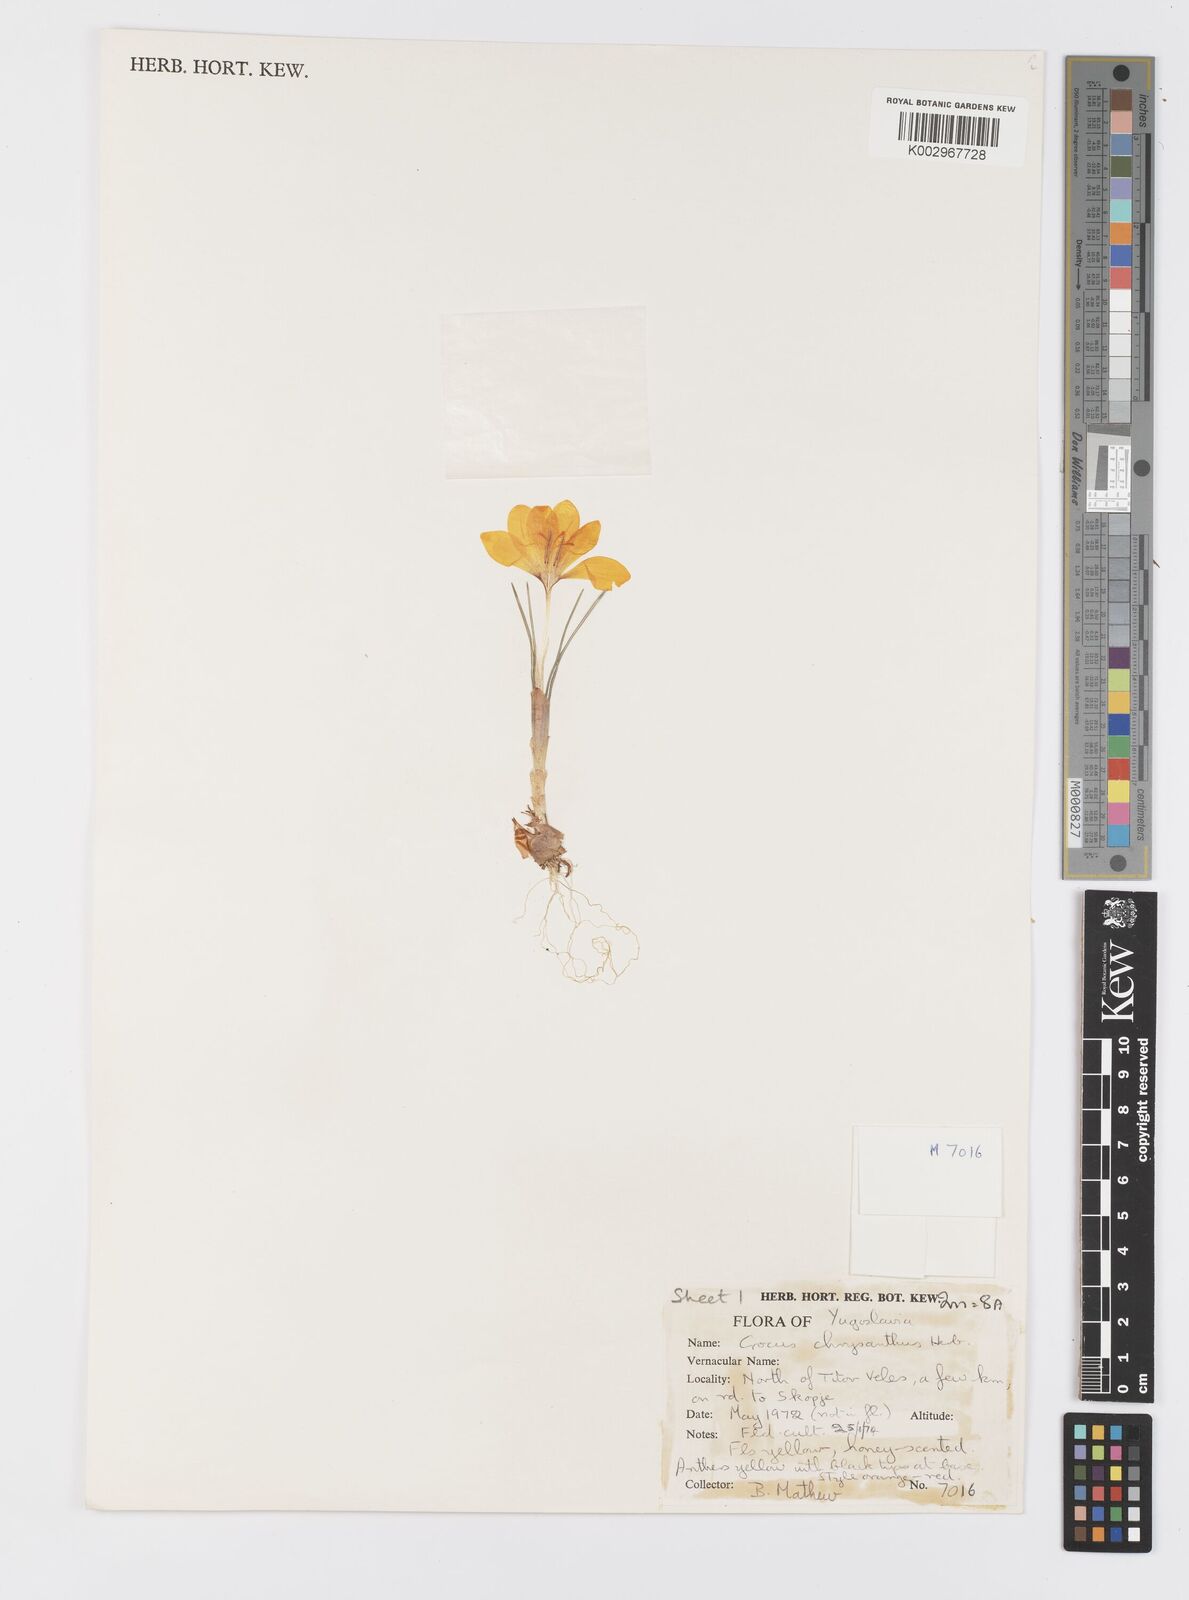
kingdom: Plantae
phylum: Tracheophyta
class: Liliopsida
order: Asparagales
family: Iridaceae
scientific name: Iridaceae
